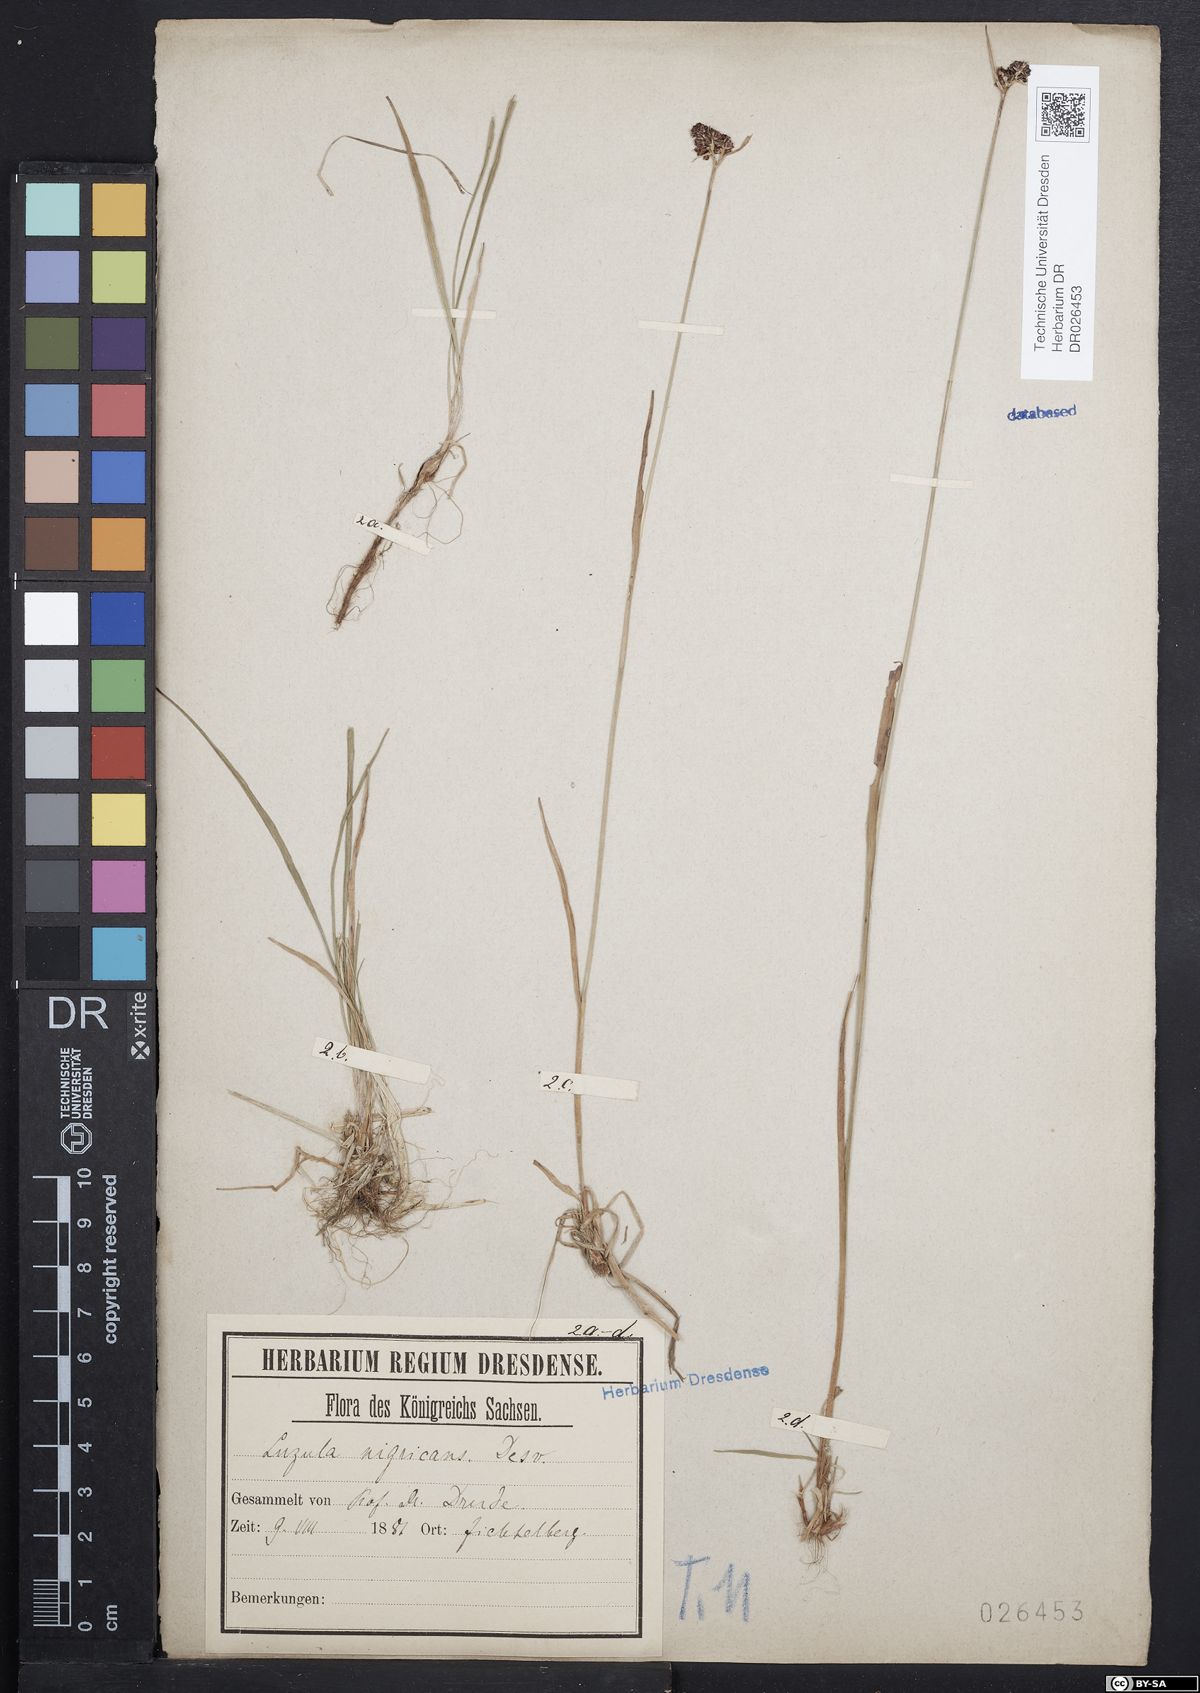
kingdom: Plantae
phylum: Tracheophyta
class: Liliopsida
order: Poales
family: Juncaceae
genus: Luzula
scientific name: Luzula sudetica
